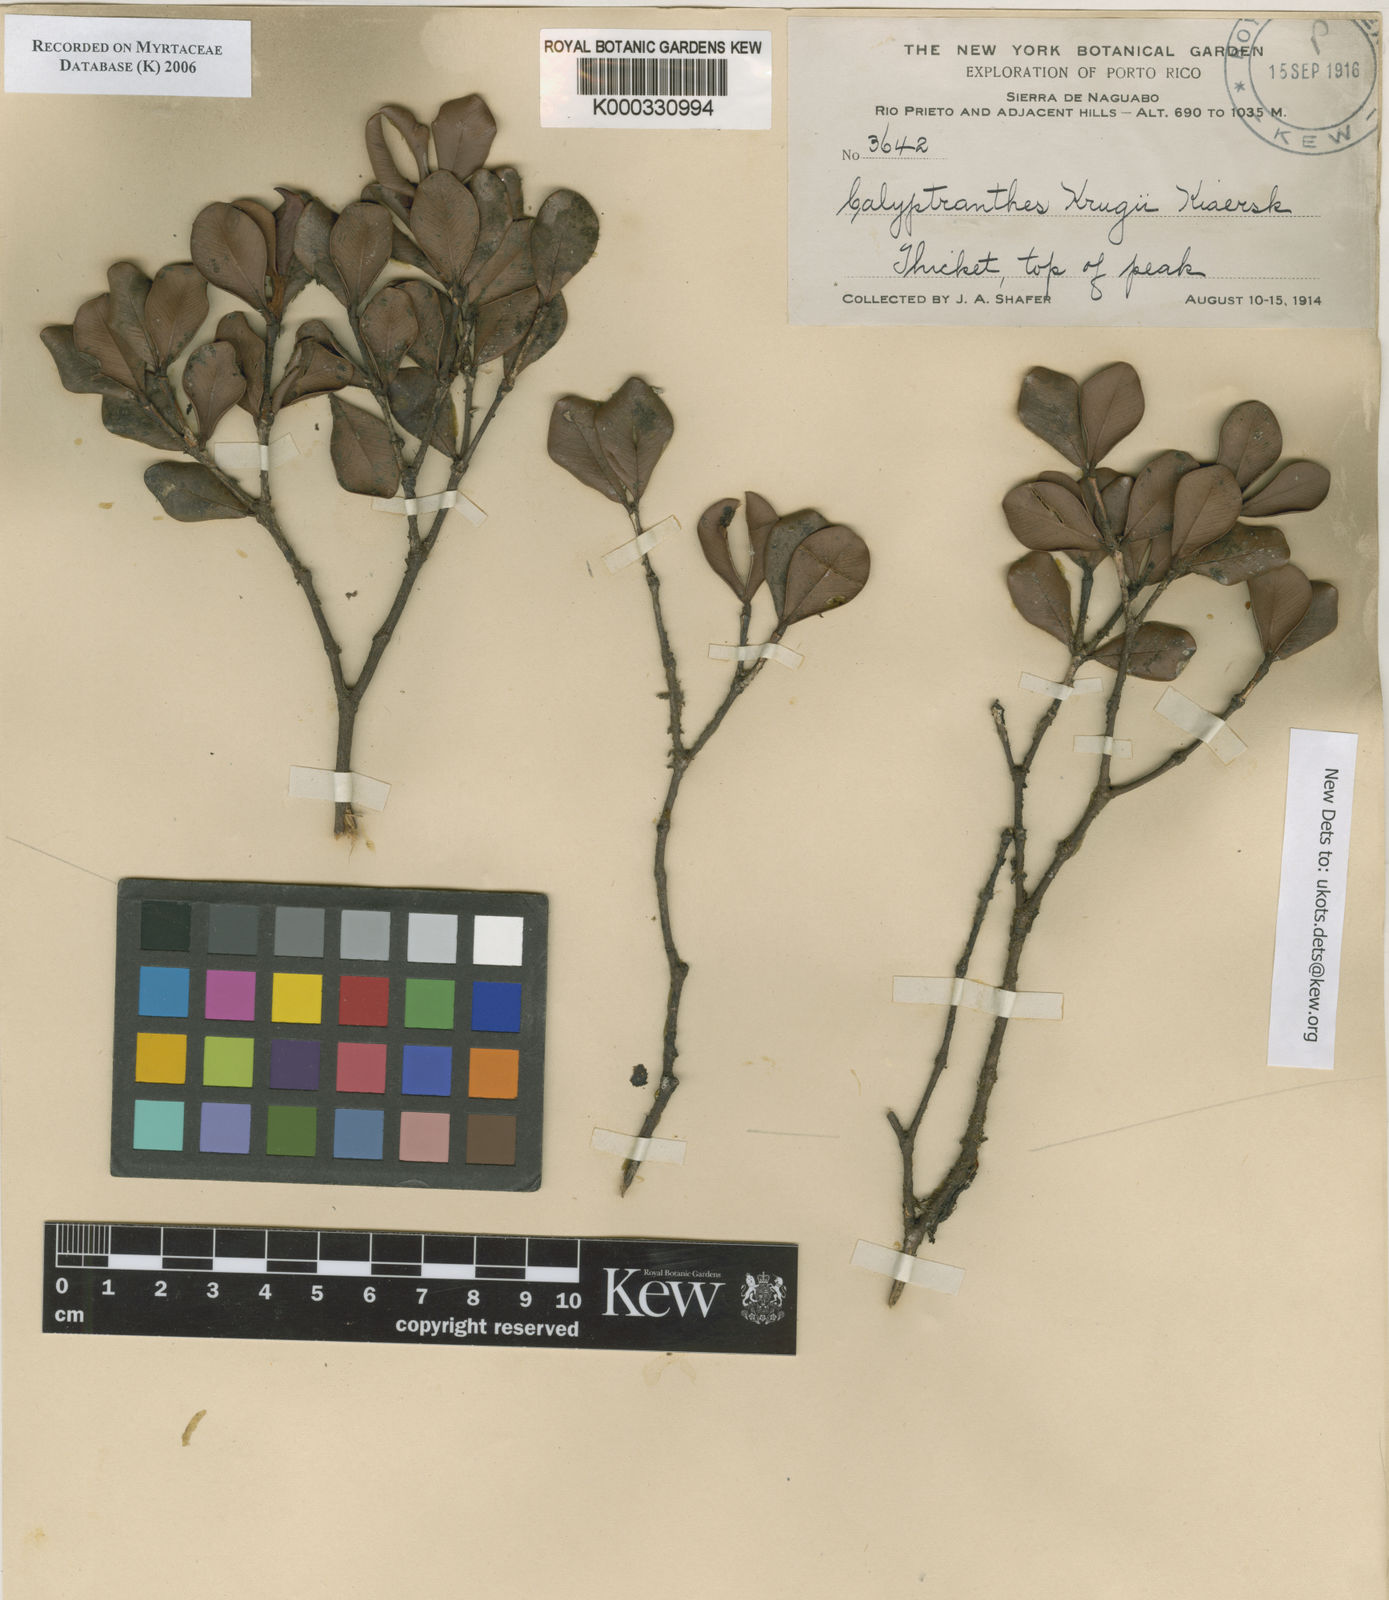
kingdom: Plantae
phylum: Tracheophyta
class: Magnoliopsida
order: Myrtales
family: Myrtaceae
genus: Myrcia
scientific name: Myrcia krugii
